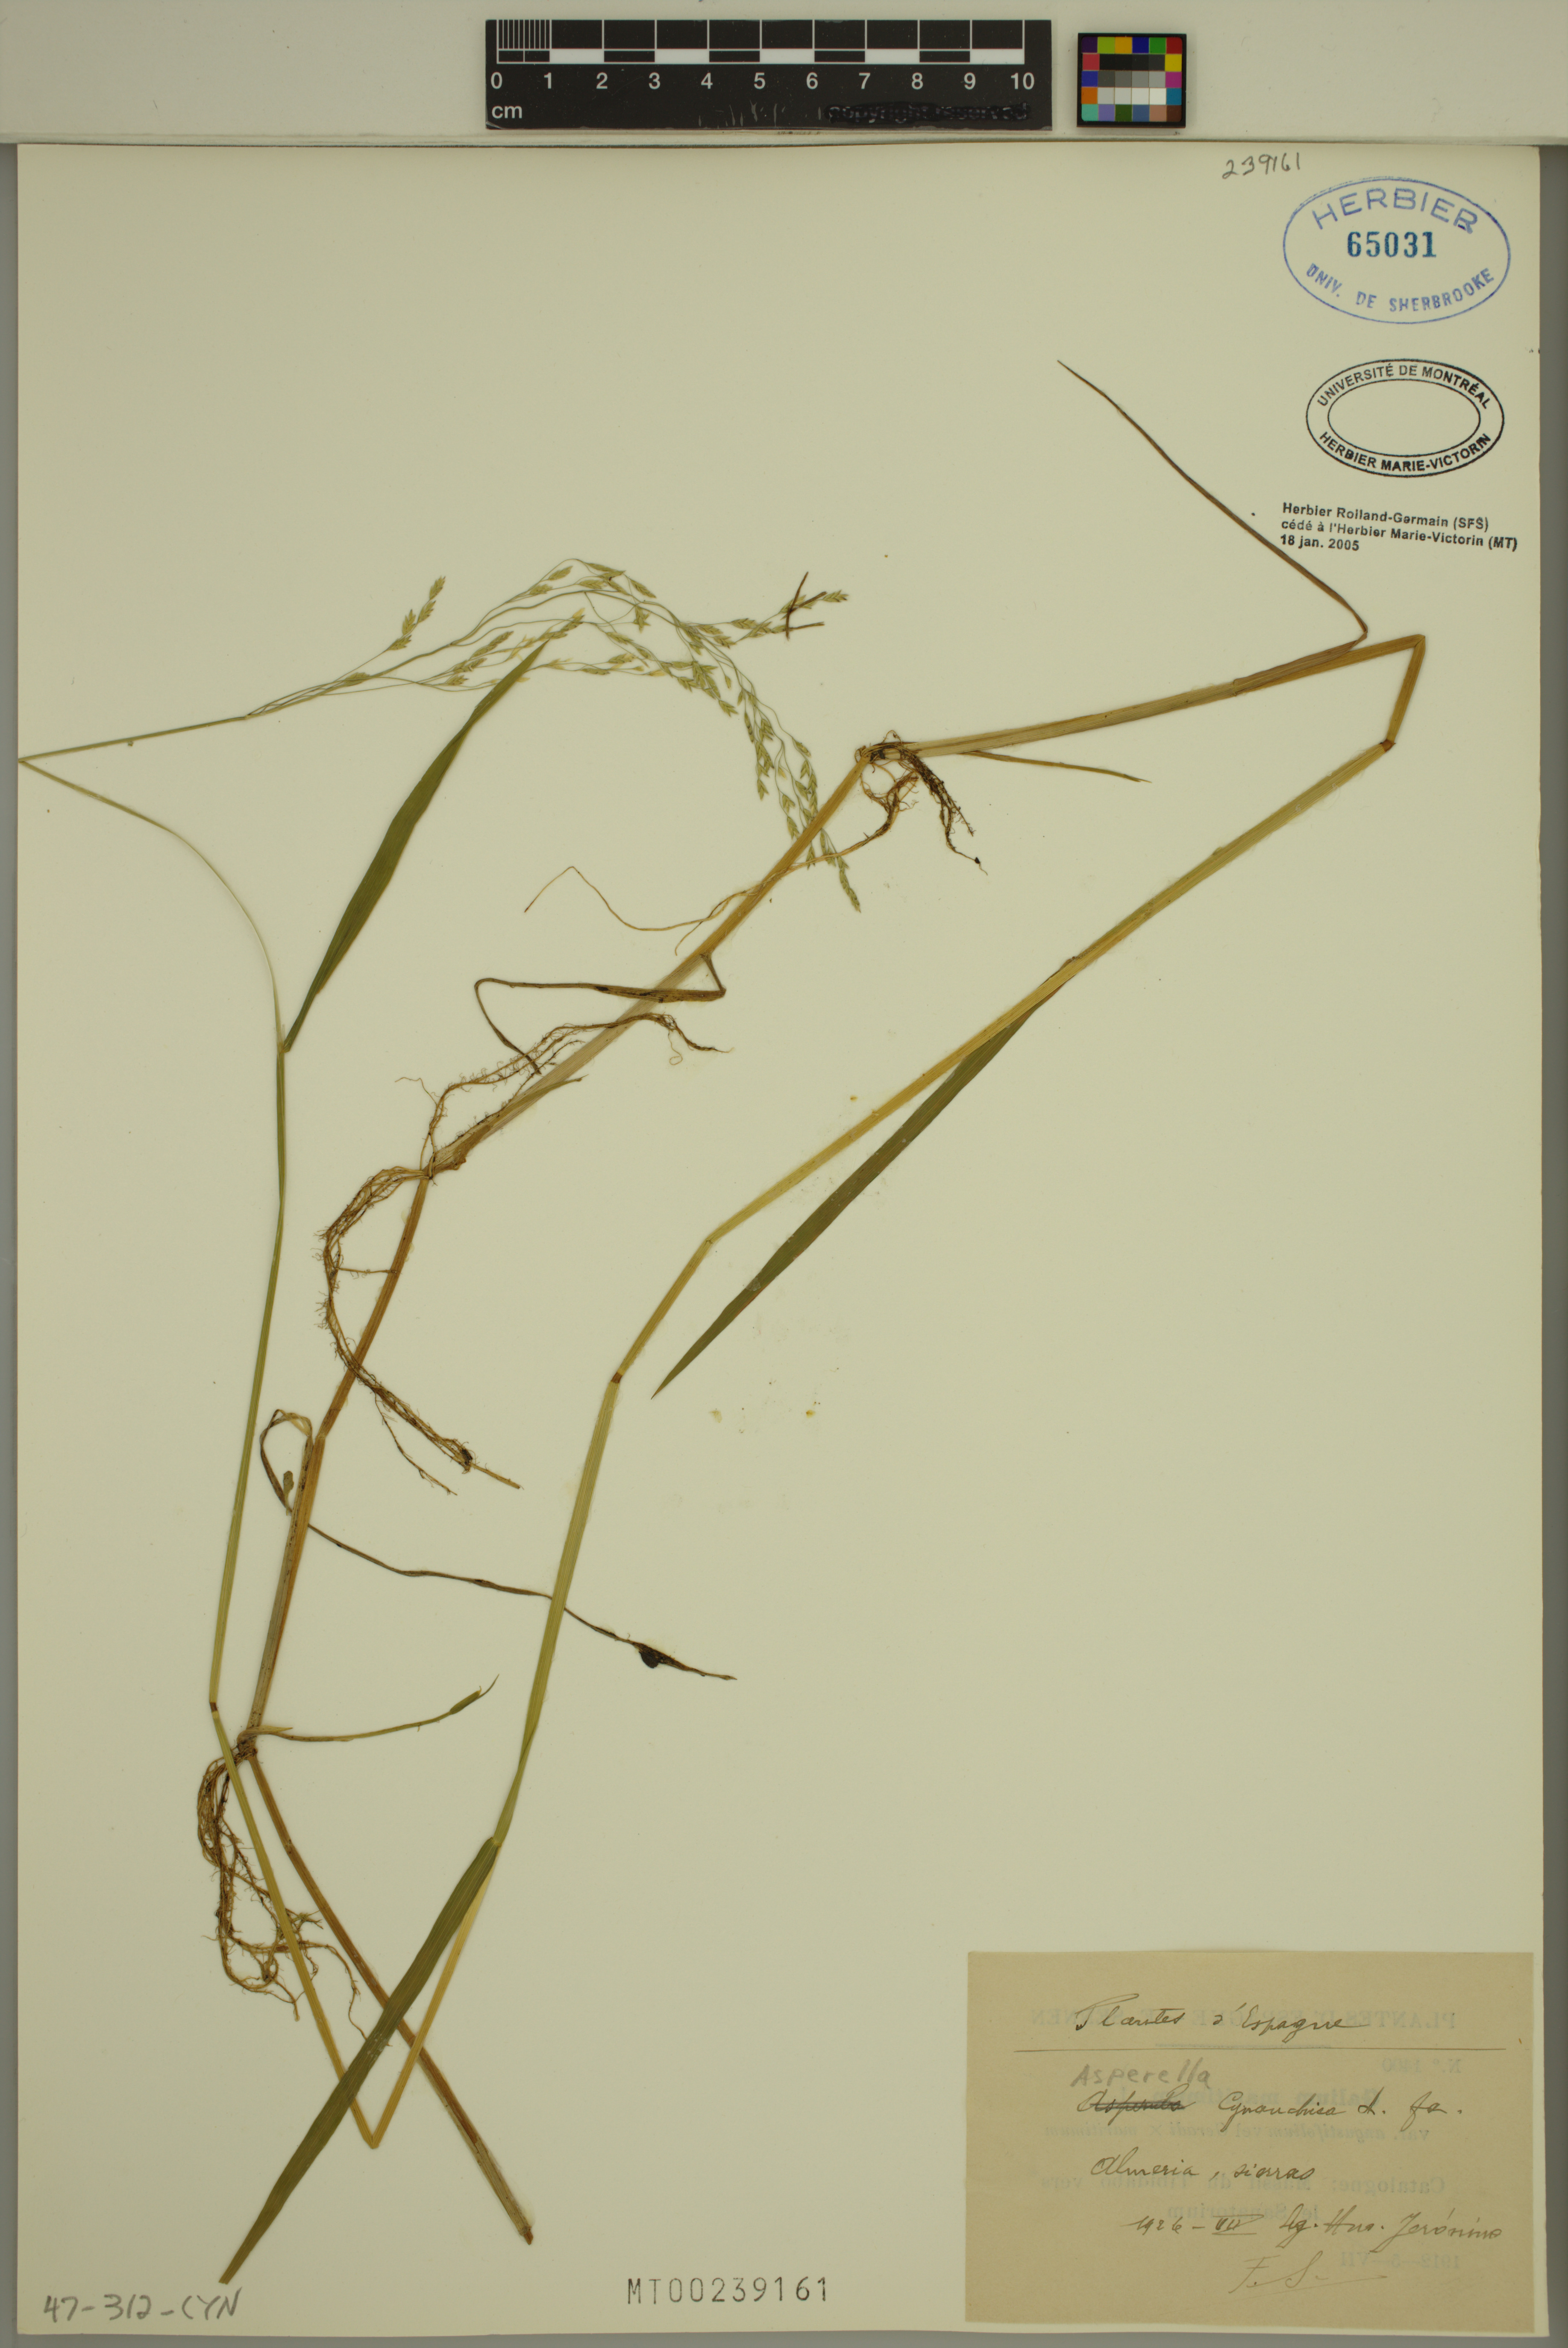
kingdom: Plantae
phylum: Tracheophyta
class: Liliopsida
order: Poales
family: Poaceae
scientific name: Poaceae
